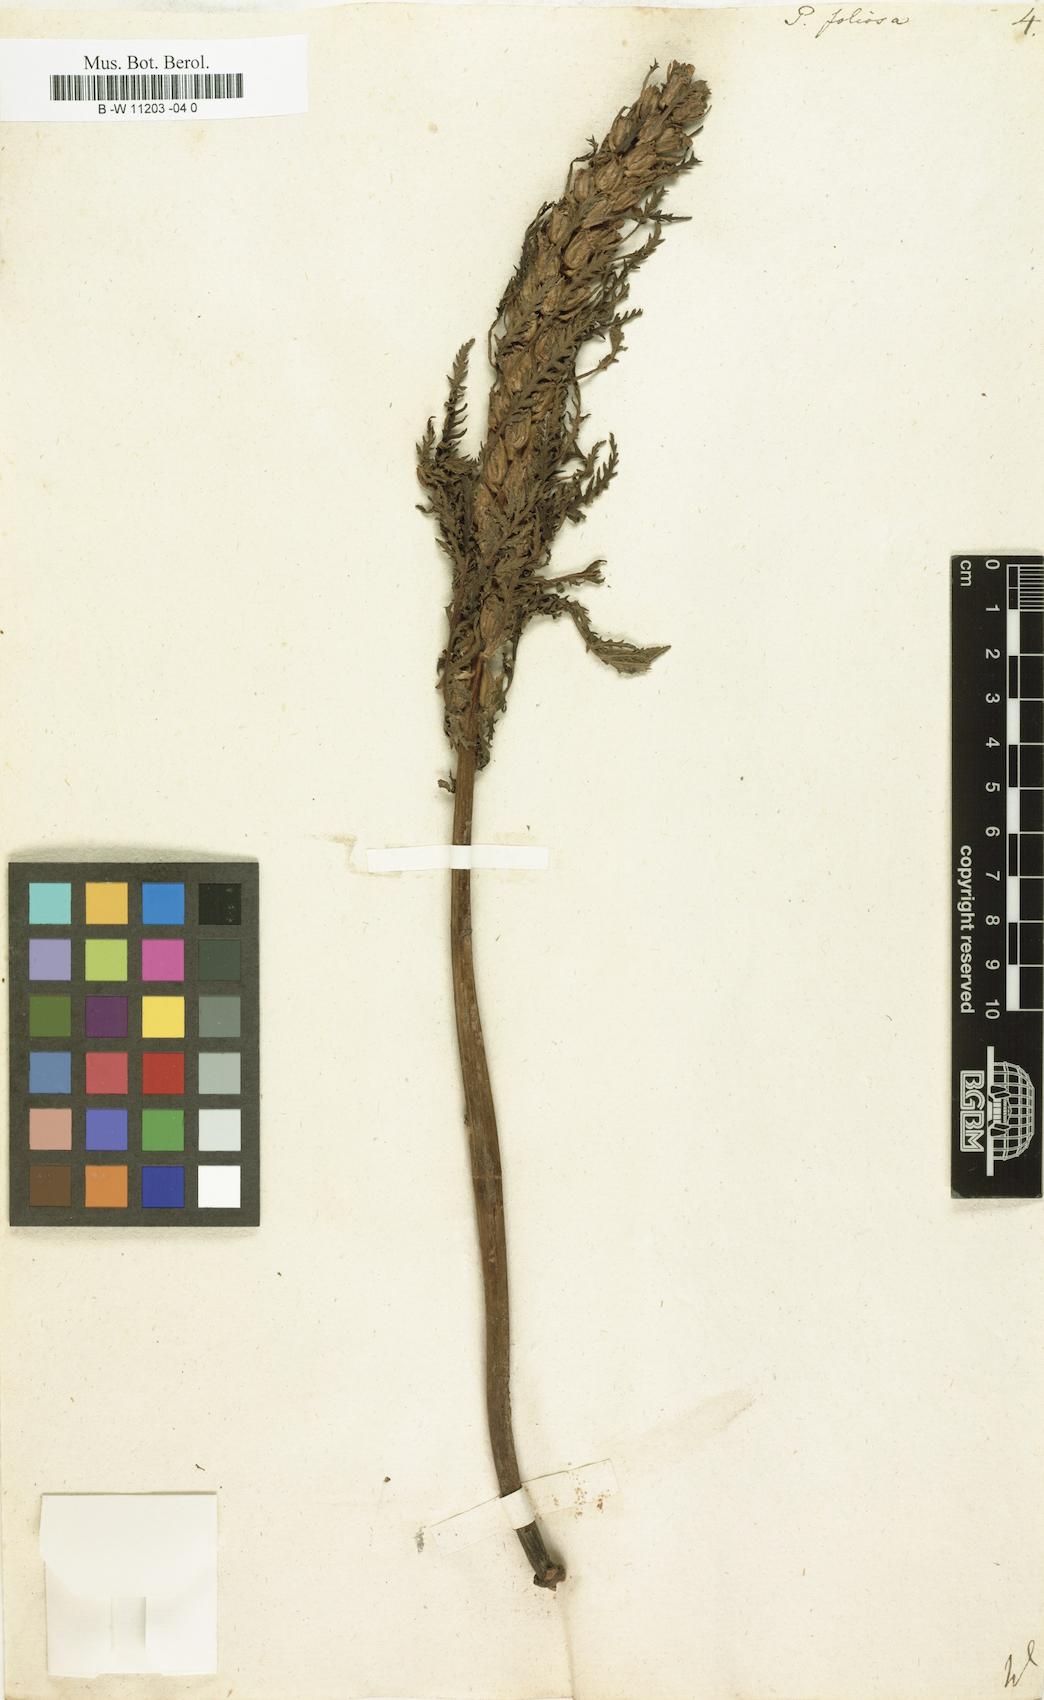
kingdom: Plantae
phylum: Tracheophyta
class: Magnoliopsida
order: Lamiales
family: Orobanchaceae
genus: Pedicularis
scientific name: Pedicularis foliosa
